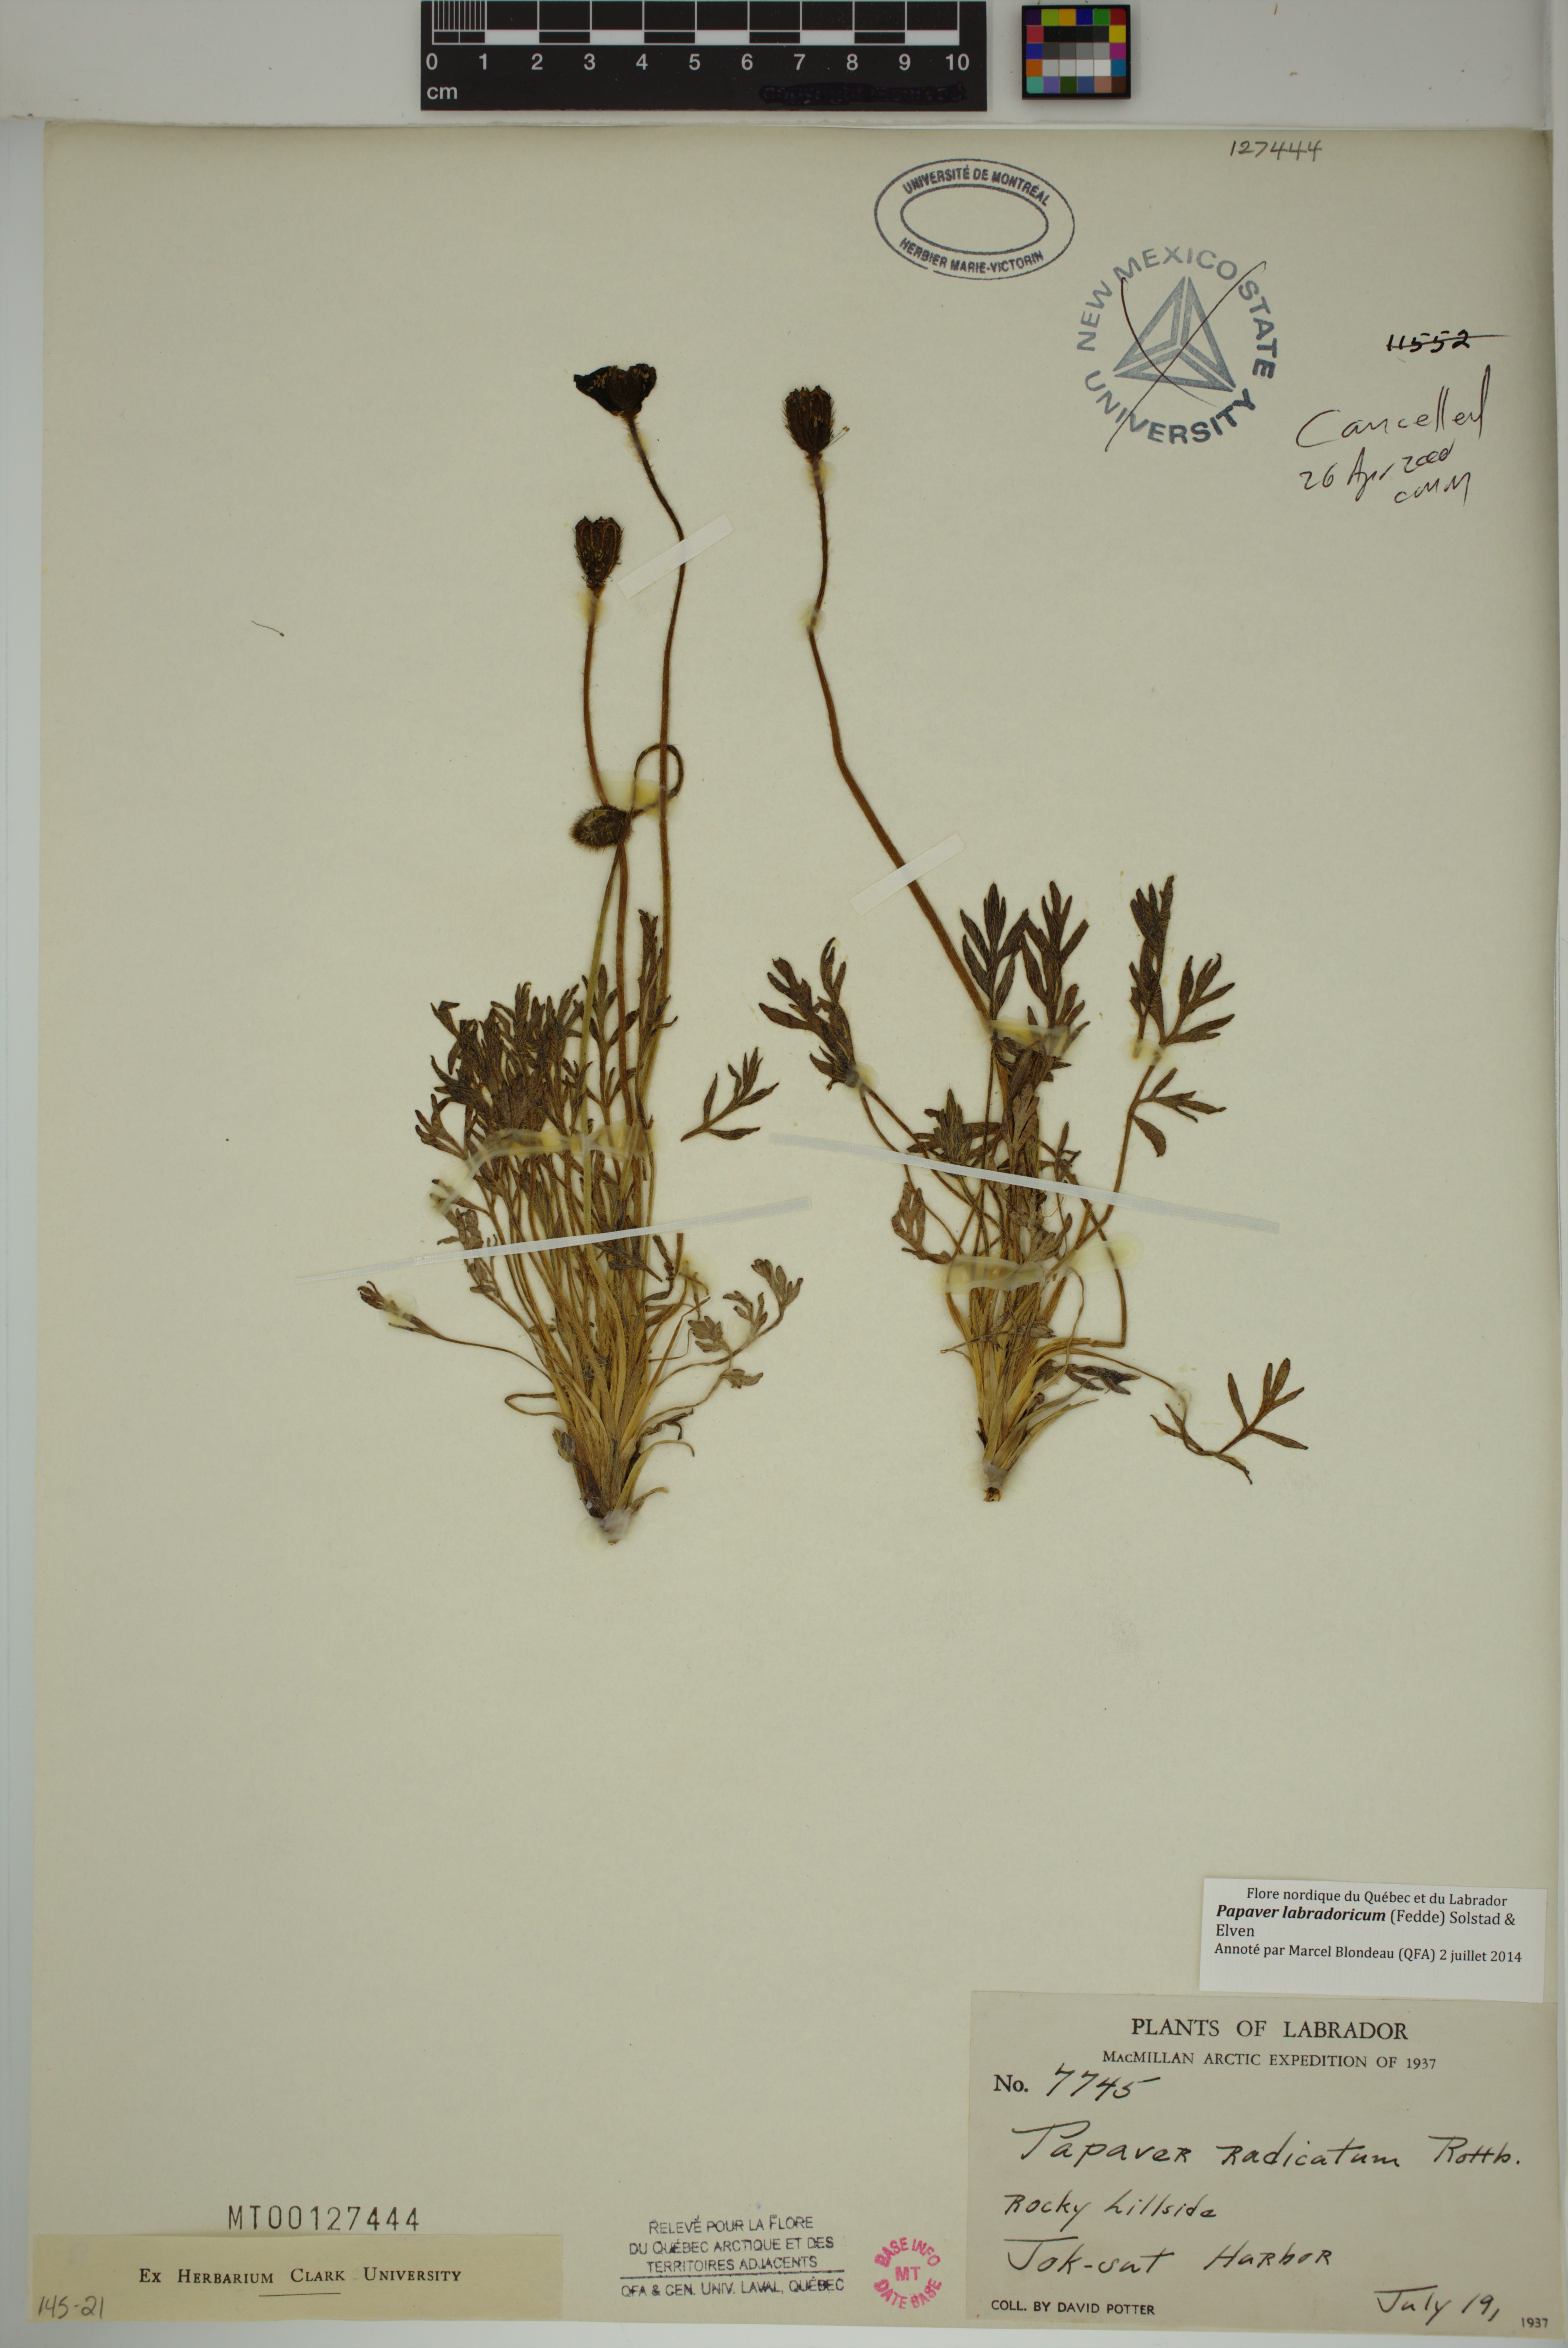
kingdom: Plantae
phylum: Tracheophyta
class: Magnoliopsida
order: Ranunculales
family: Papaveraceae
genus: Papaver
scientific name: Papaver radicatum
